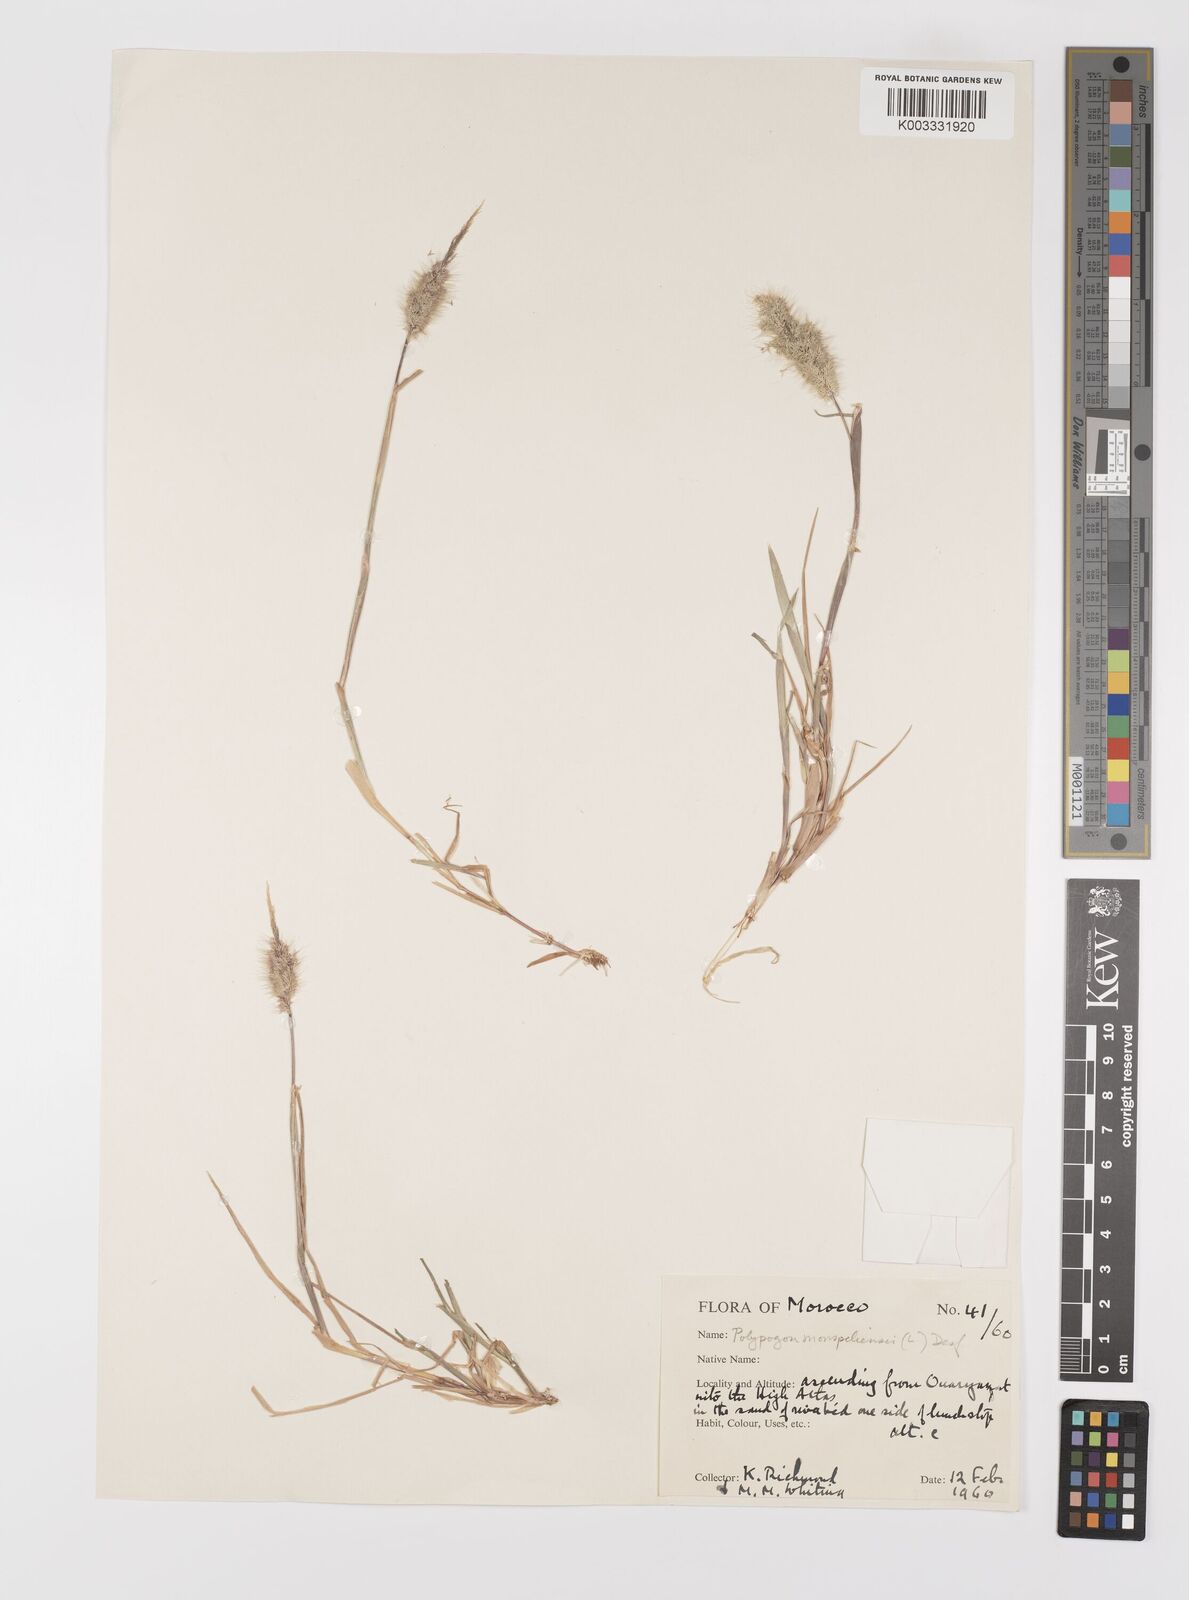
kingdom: Plantae
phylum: Tracheophyta
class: Liliopsida
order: Poales
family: Poaceae
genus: Polypogon
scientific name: Polypogon monspeliensis
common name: Annual rabbitsfoot grass
